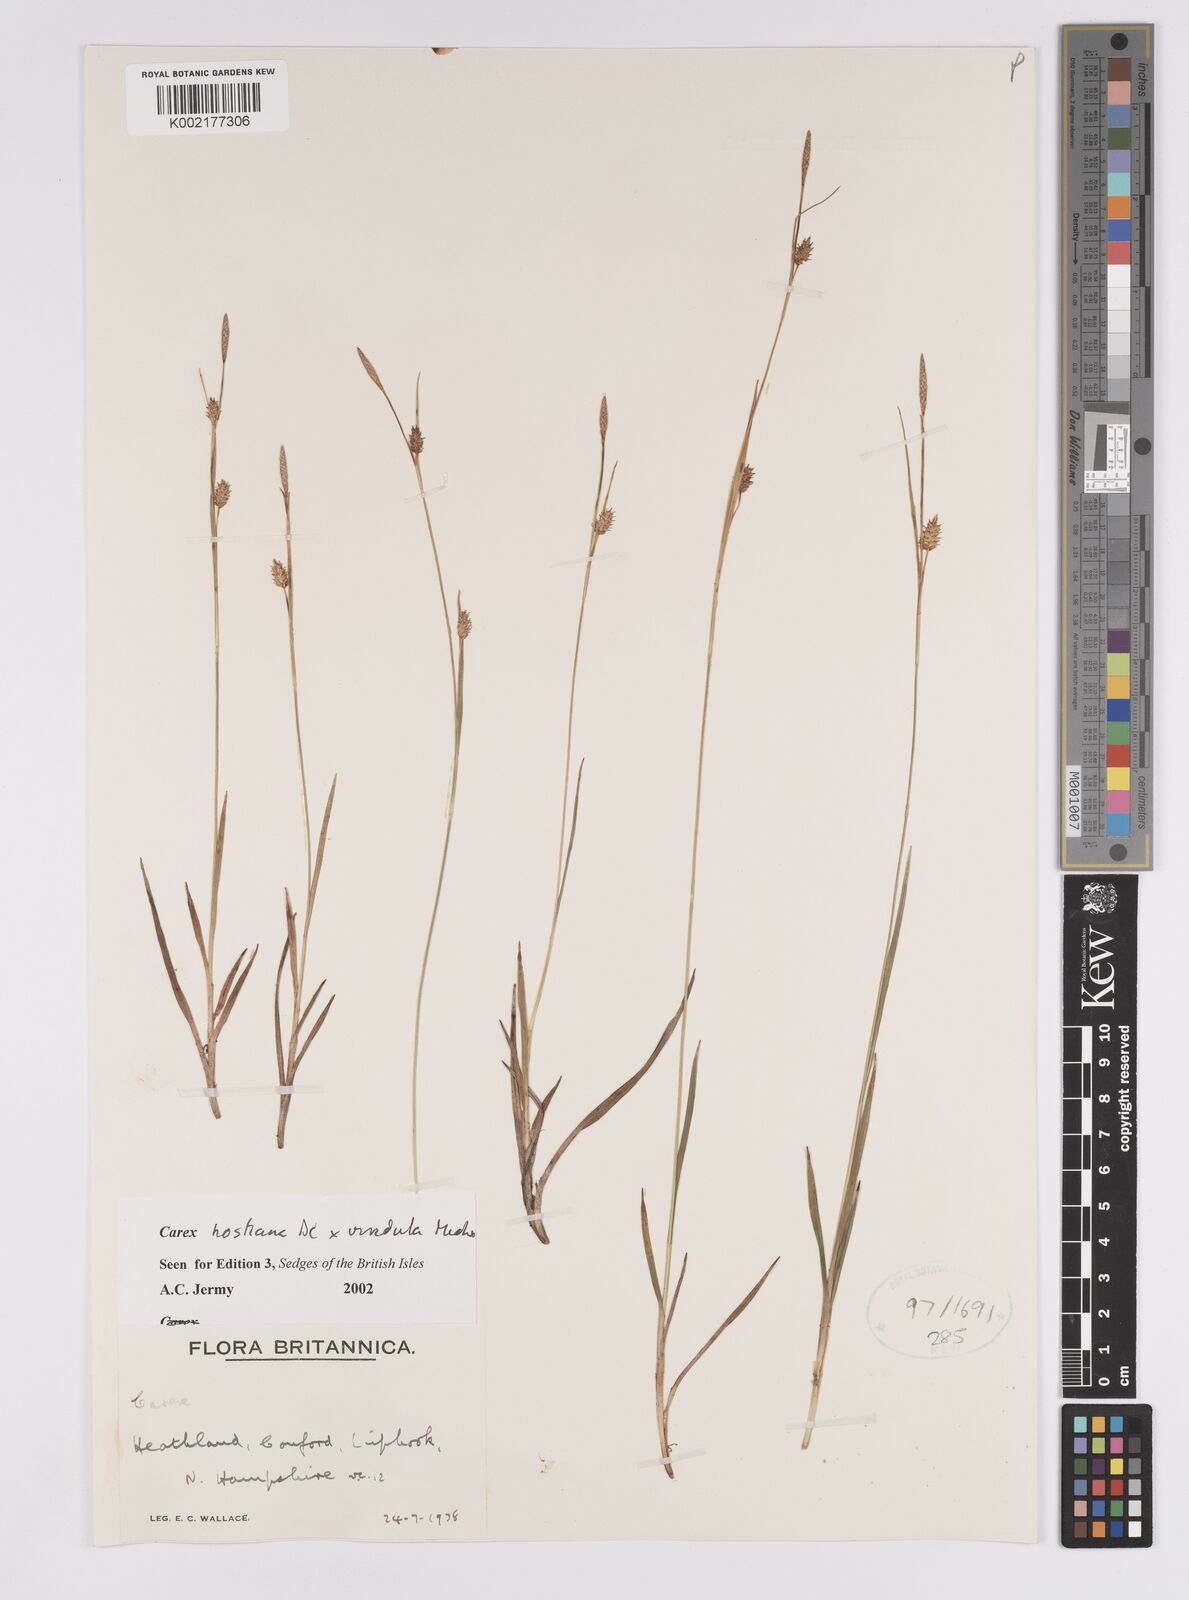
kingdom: Plantae
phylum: Tracheophyta
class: Liliopsida
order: Poales
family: Cyperaceae
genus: Carex
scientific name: Carex hostiana
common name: Tawny sedge
